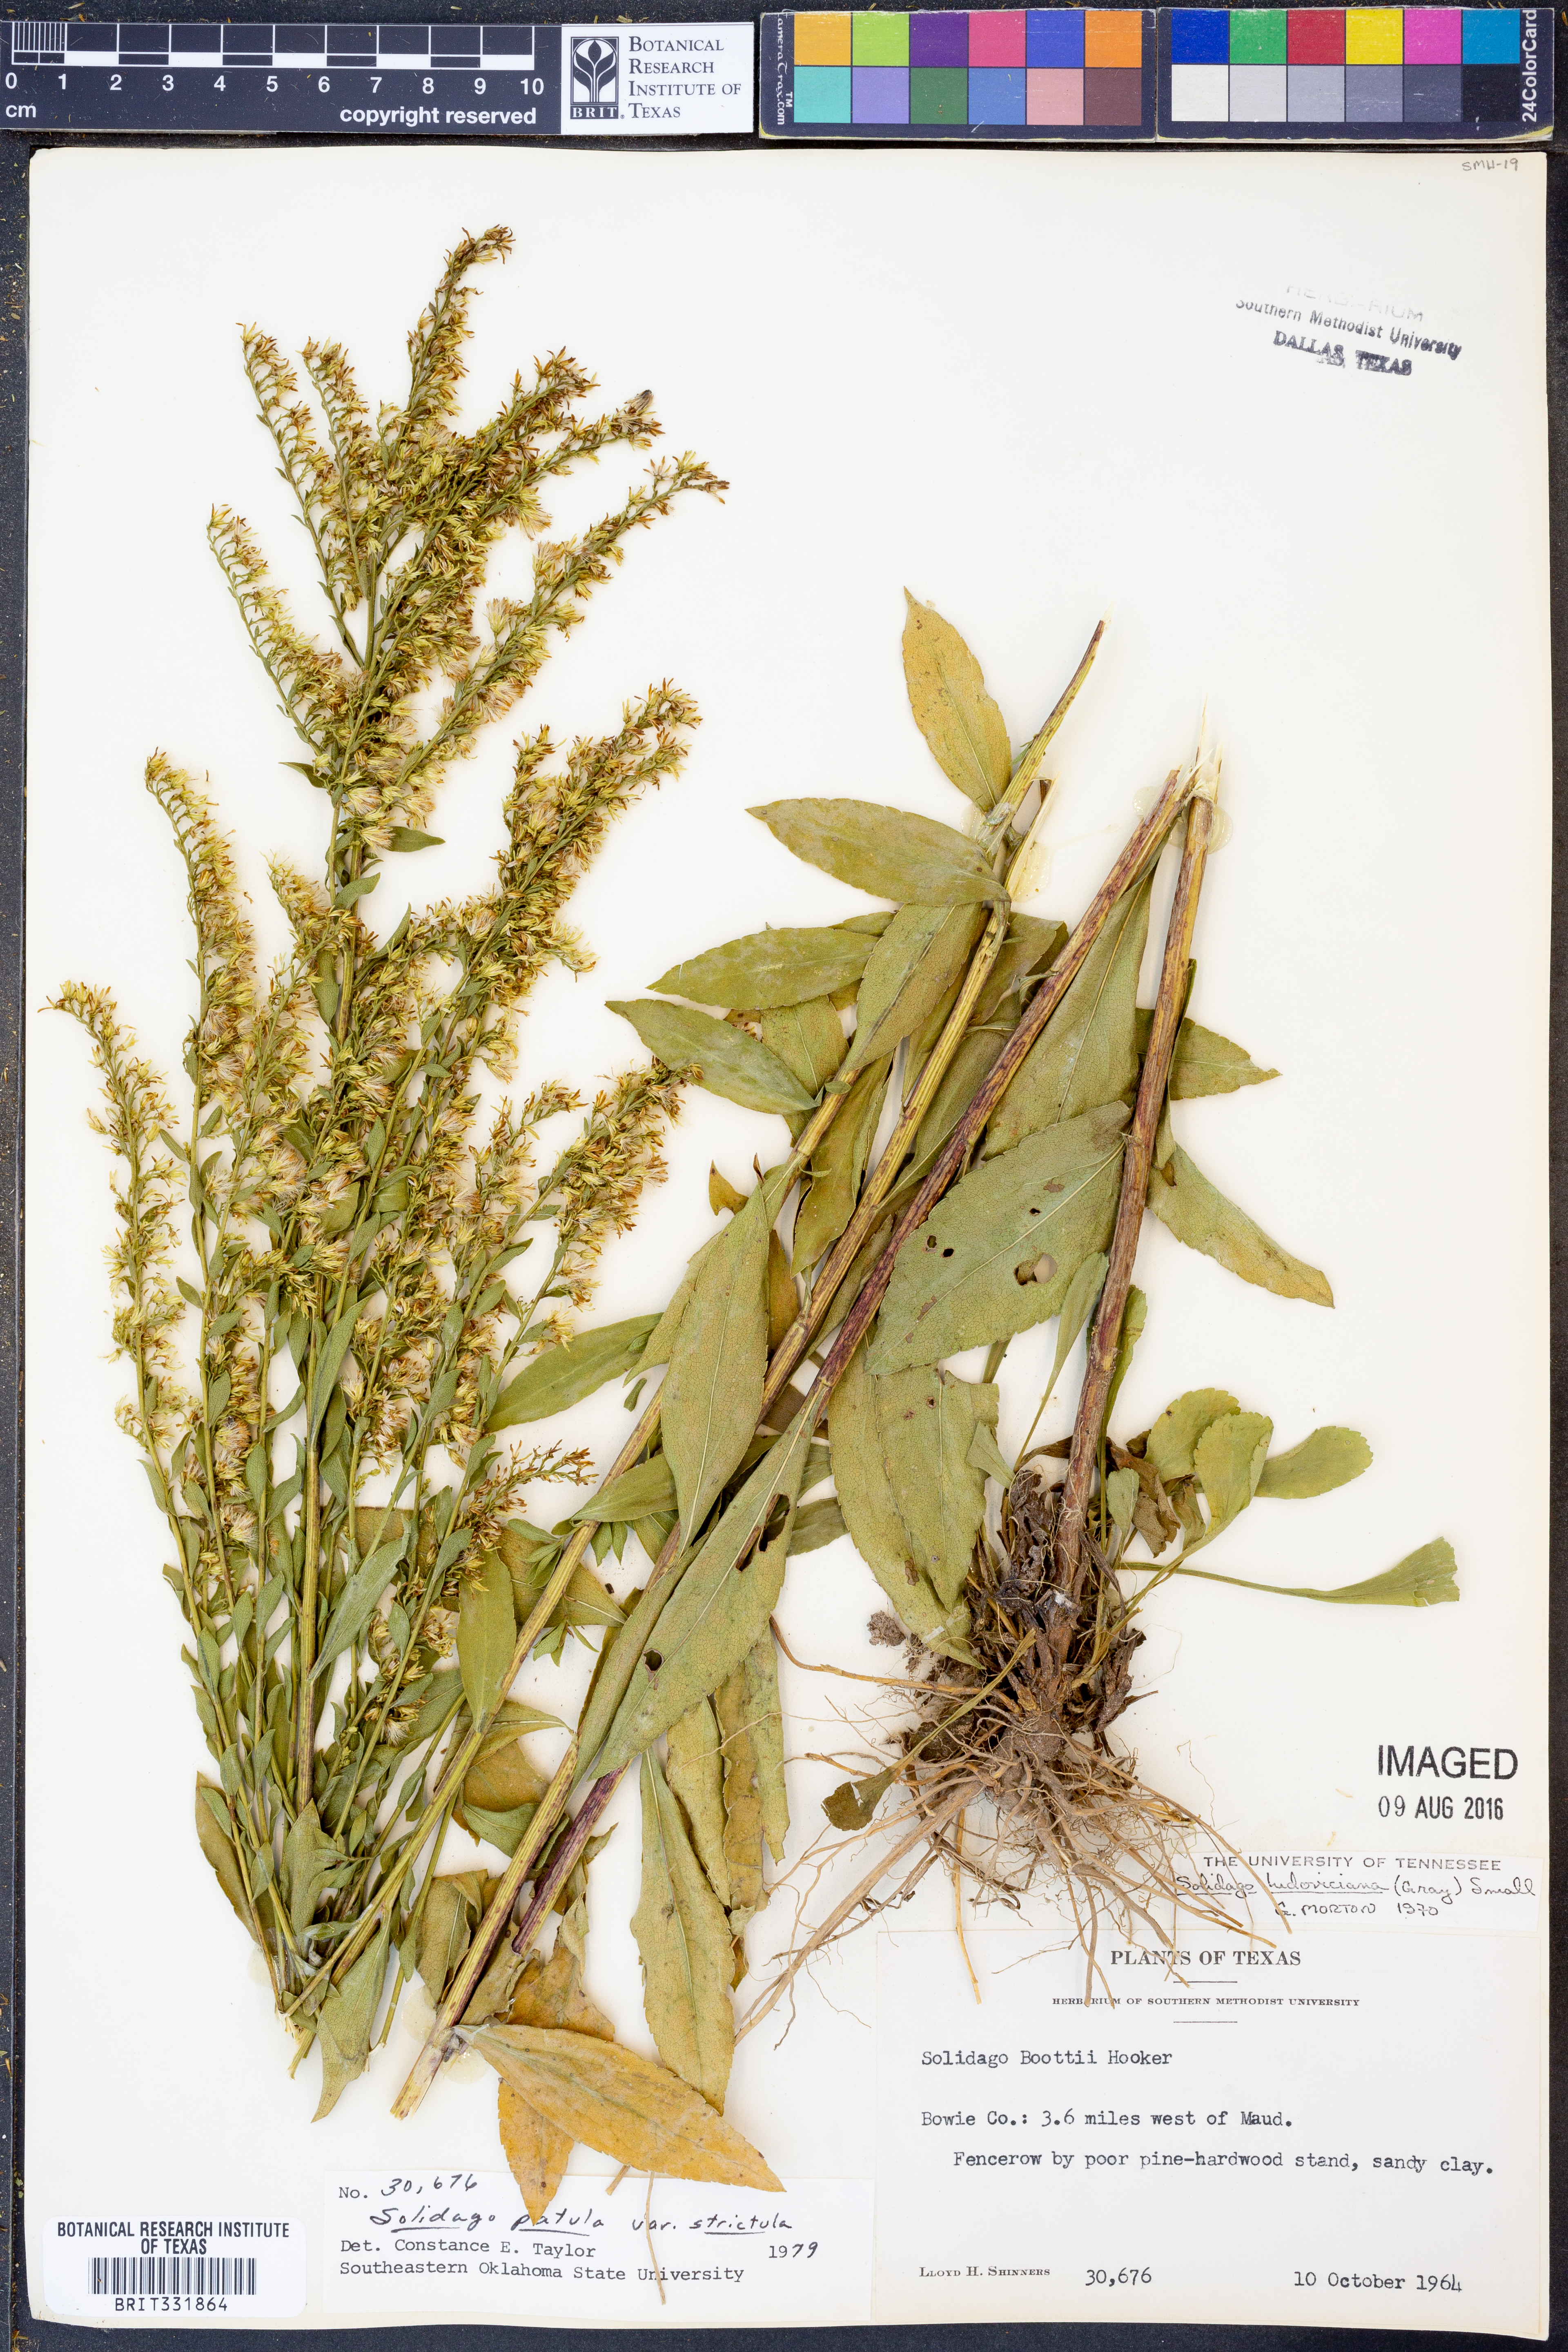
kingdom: Plantae
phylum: Tracheophyta
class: Magnoliopsida
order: Asterales
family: Asteraceae
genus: Solidago
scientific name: Solidago salicina
